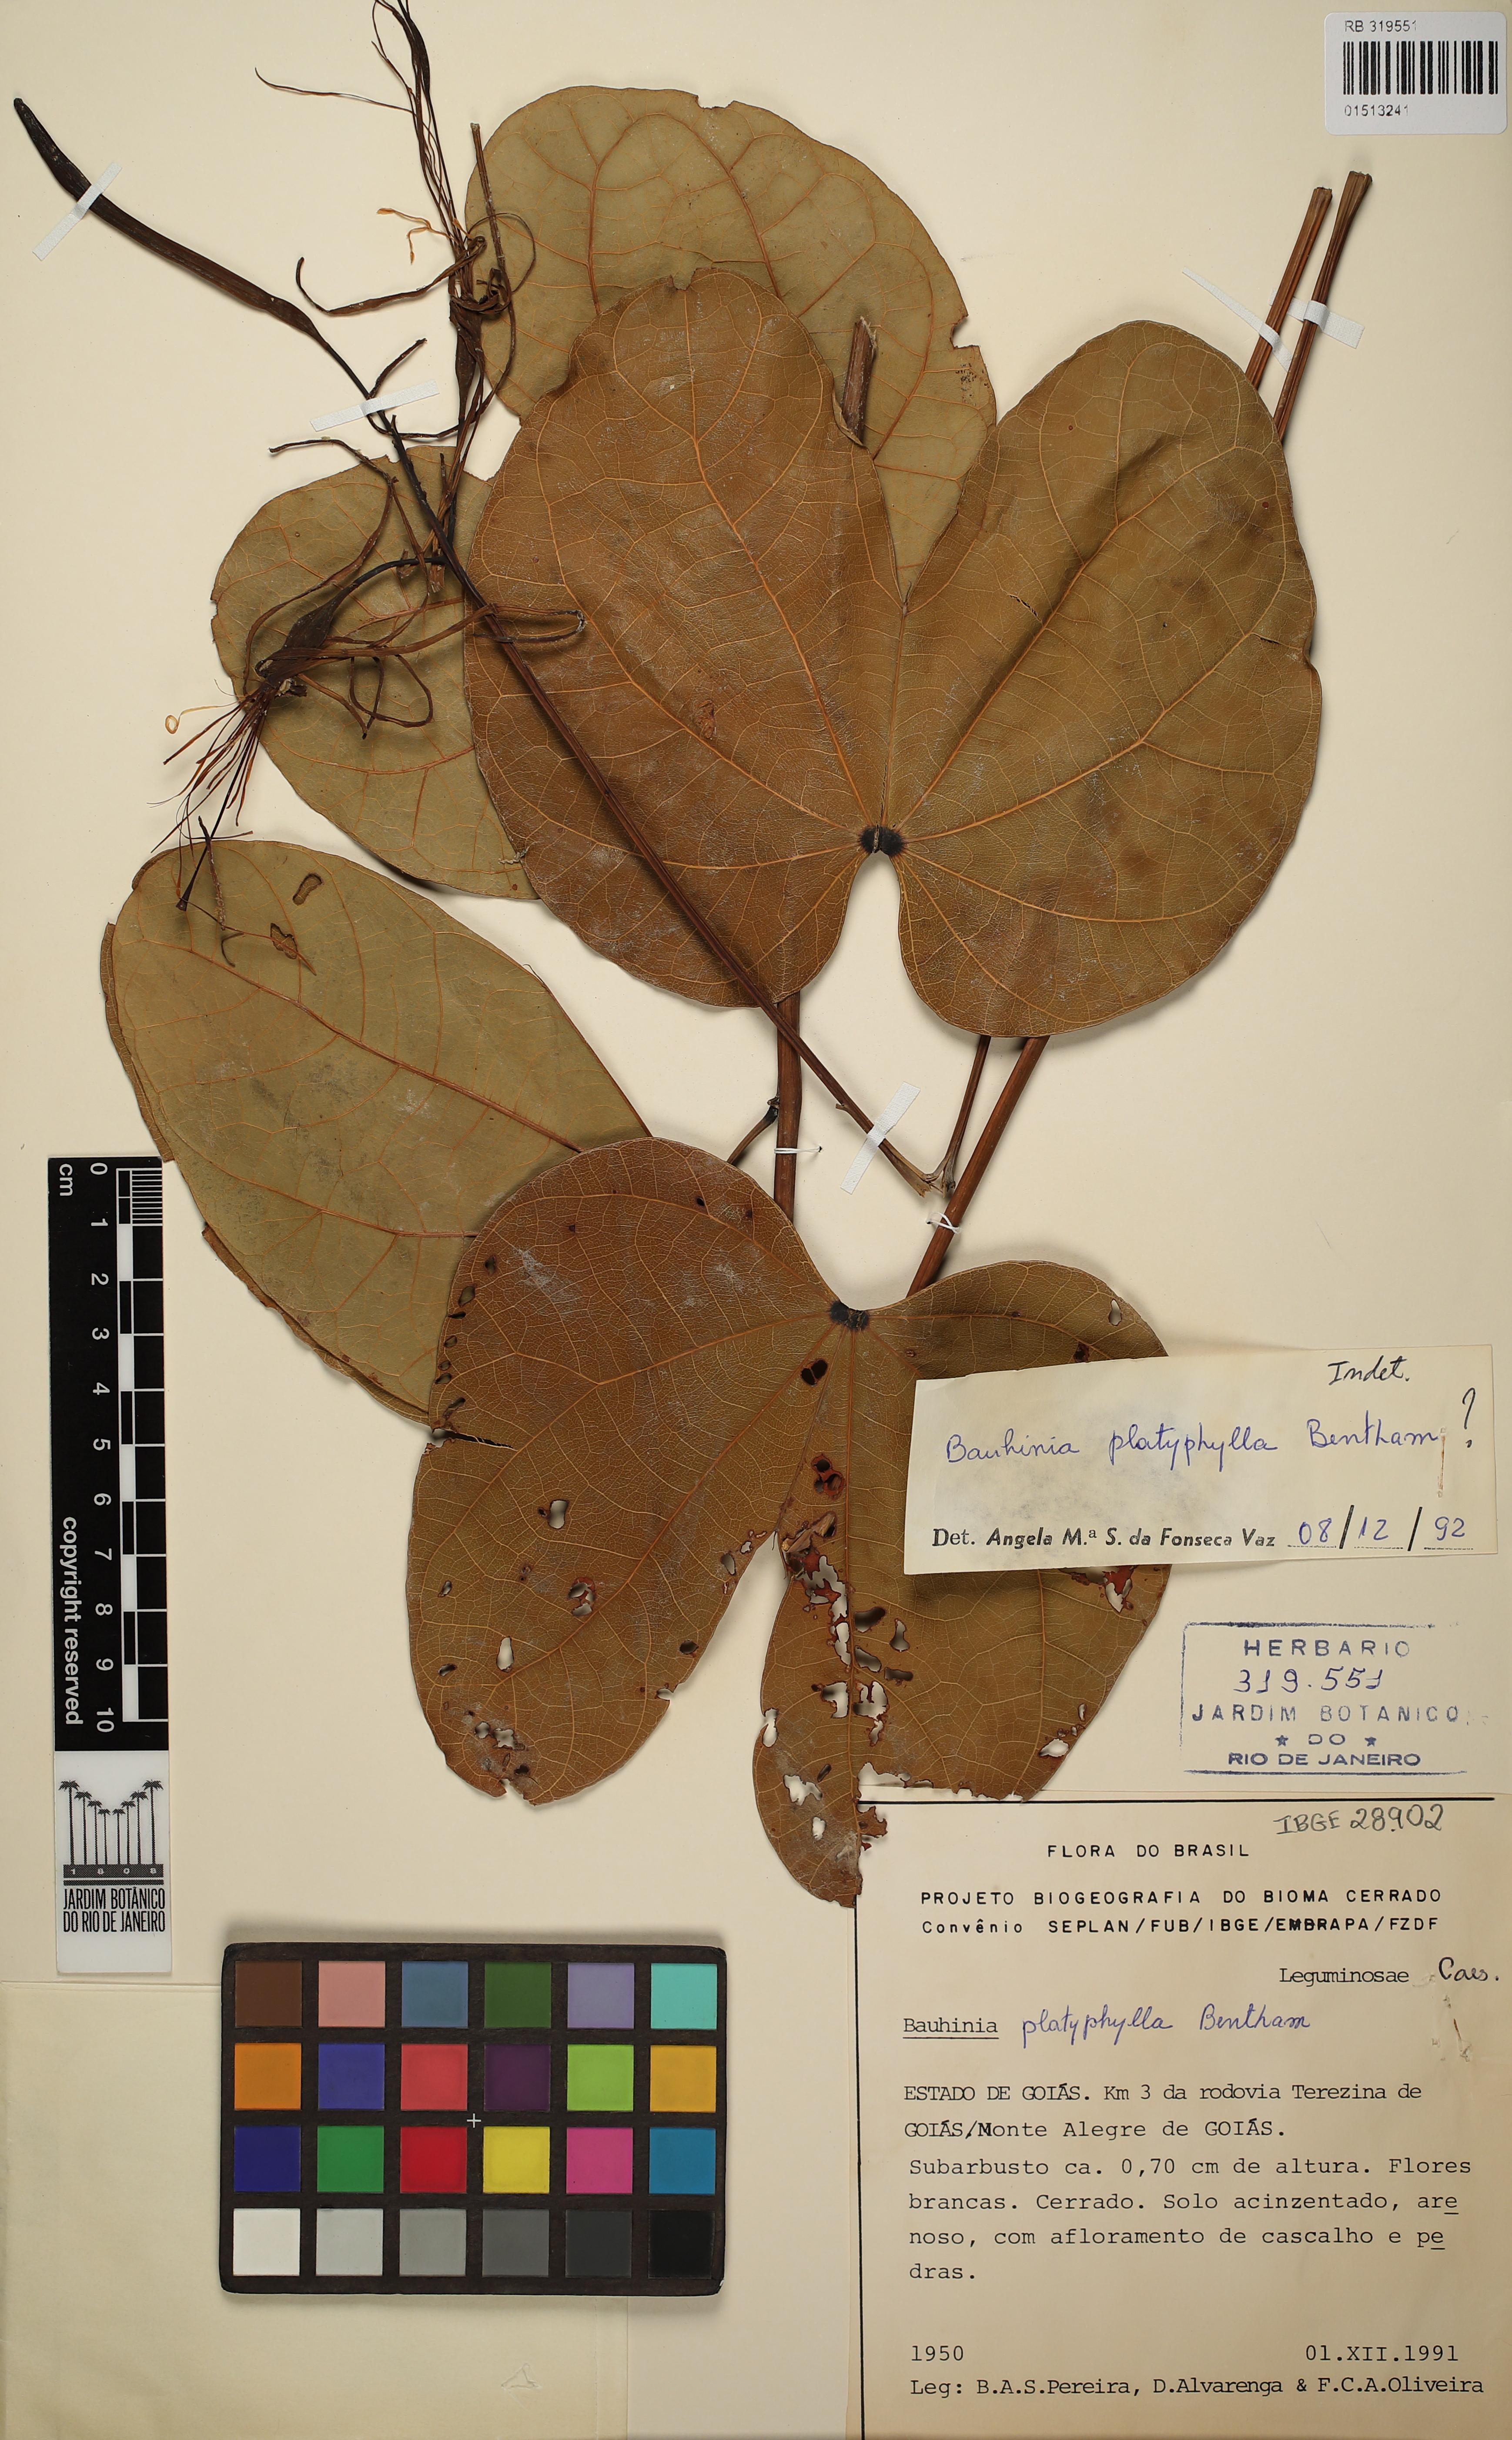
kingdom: Plantae
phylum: Tracheophyta
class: Magnoliopsida
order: Fabales
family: Fabaceae
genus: Bauhinia
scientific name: Bauhinia platyphylla
